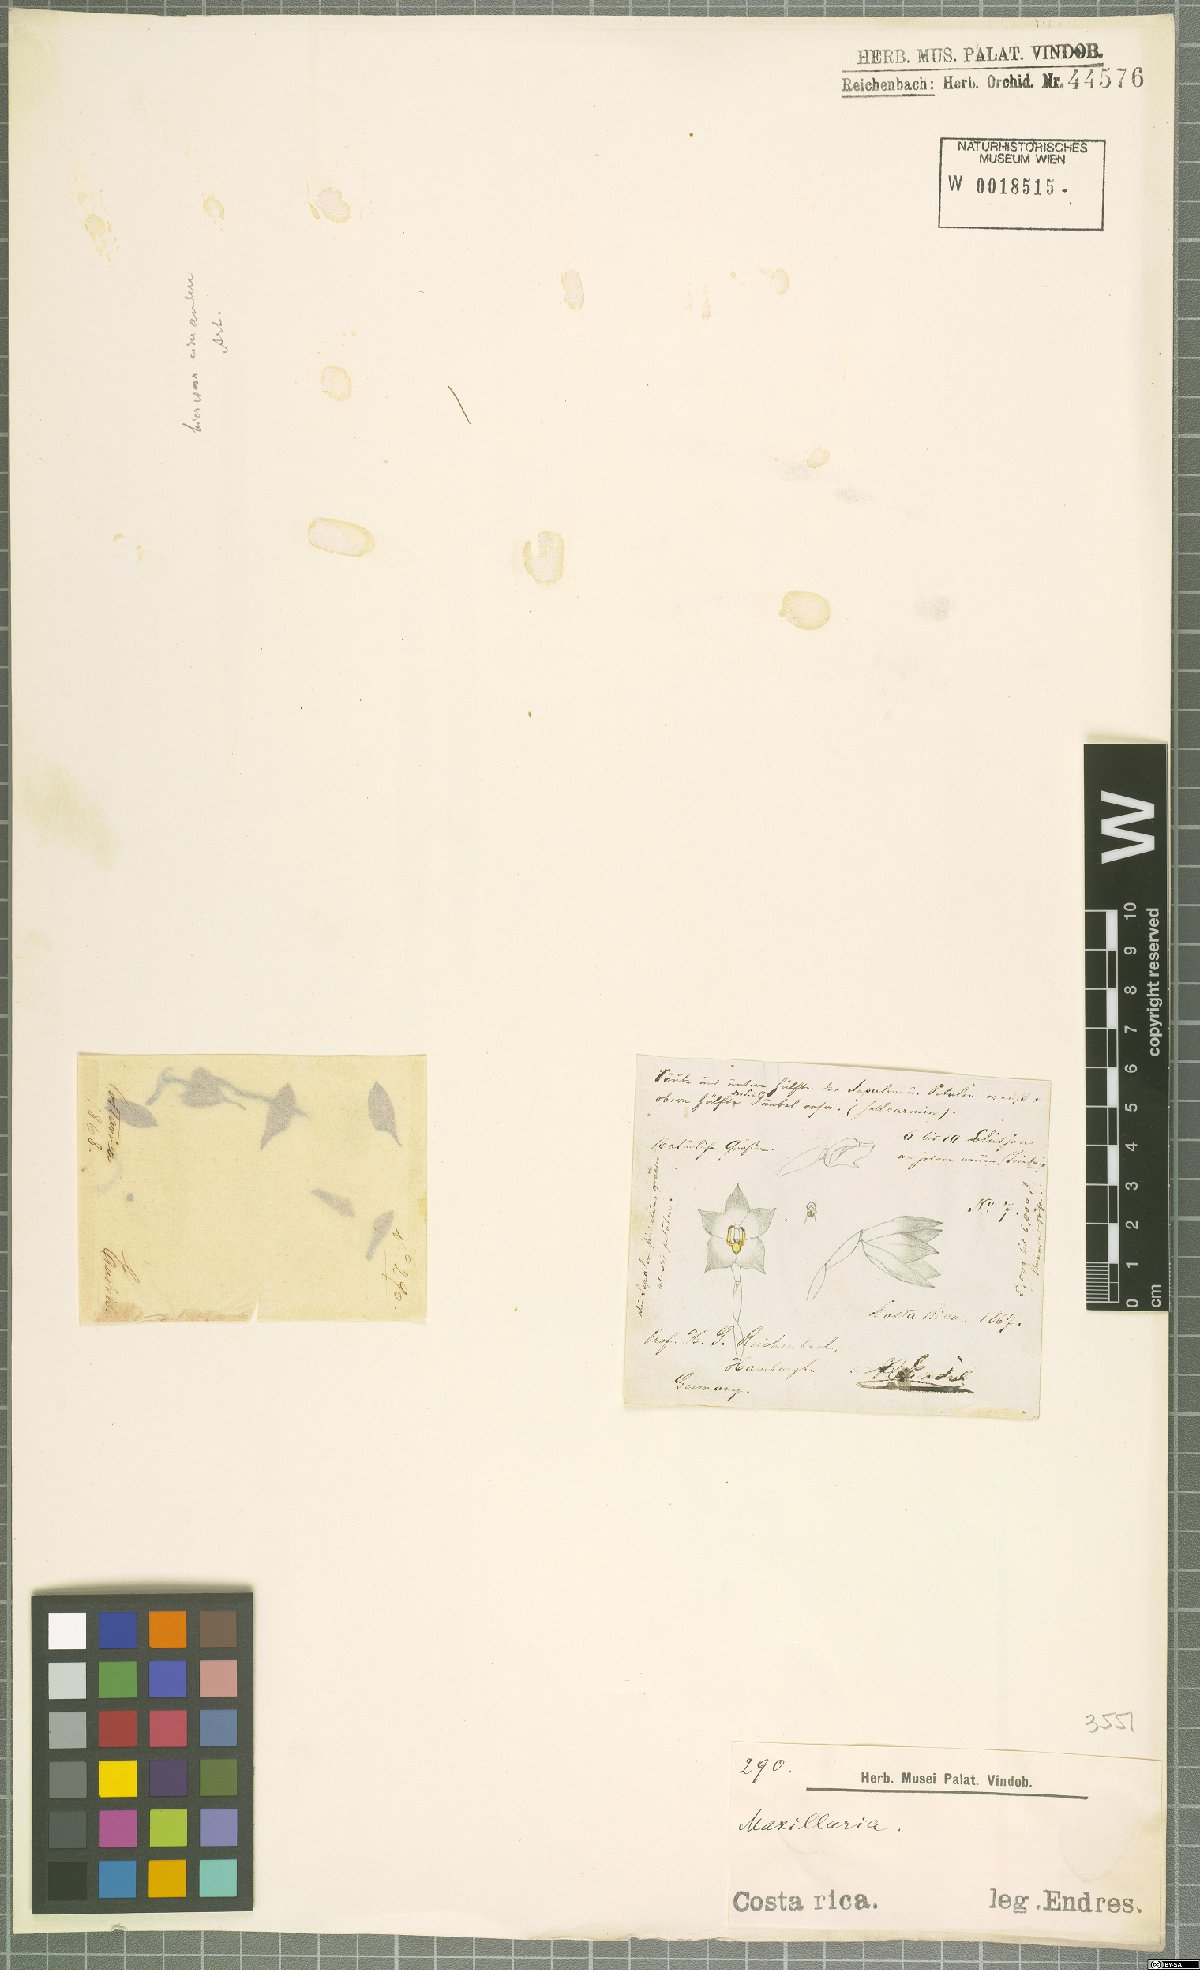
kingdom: Plantae
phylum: Tracheophyta
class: Liliopsida
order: Asparagales
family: Orchidaceae
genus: Maxillaria
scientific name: Maxillaria
